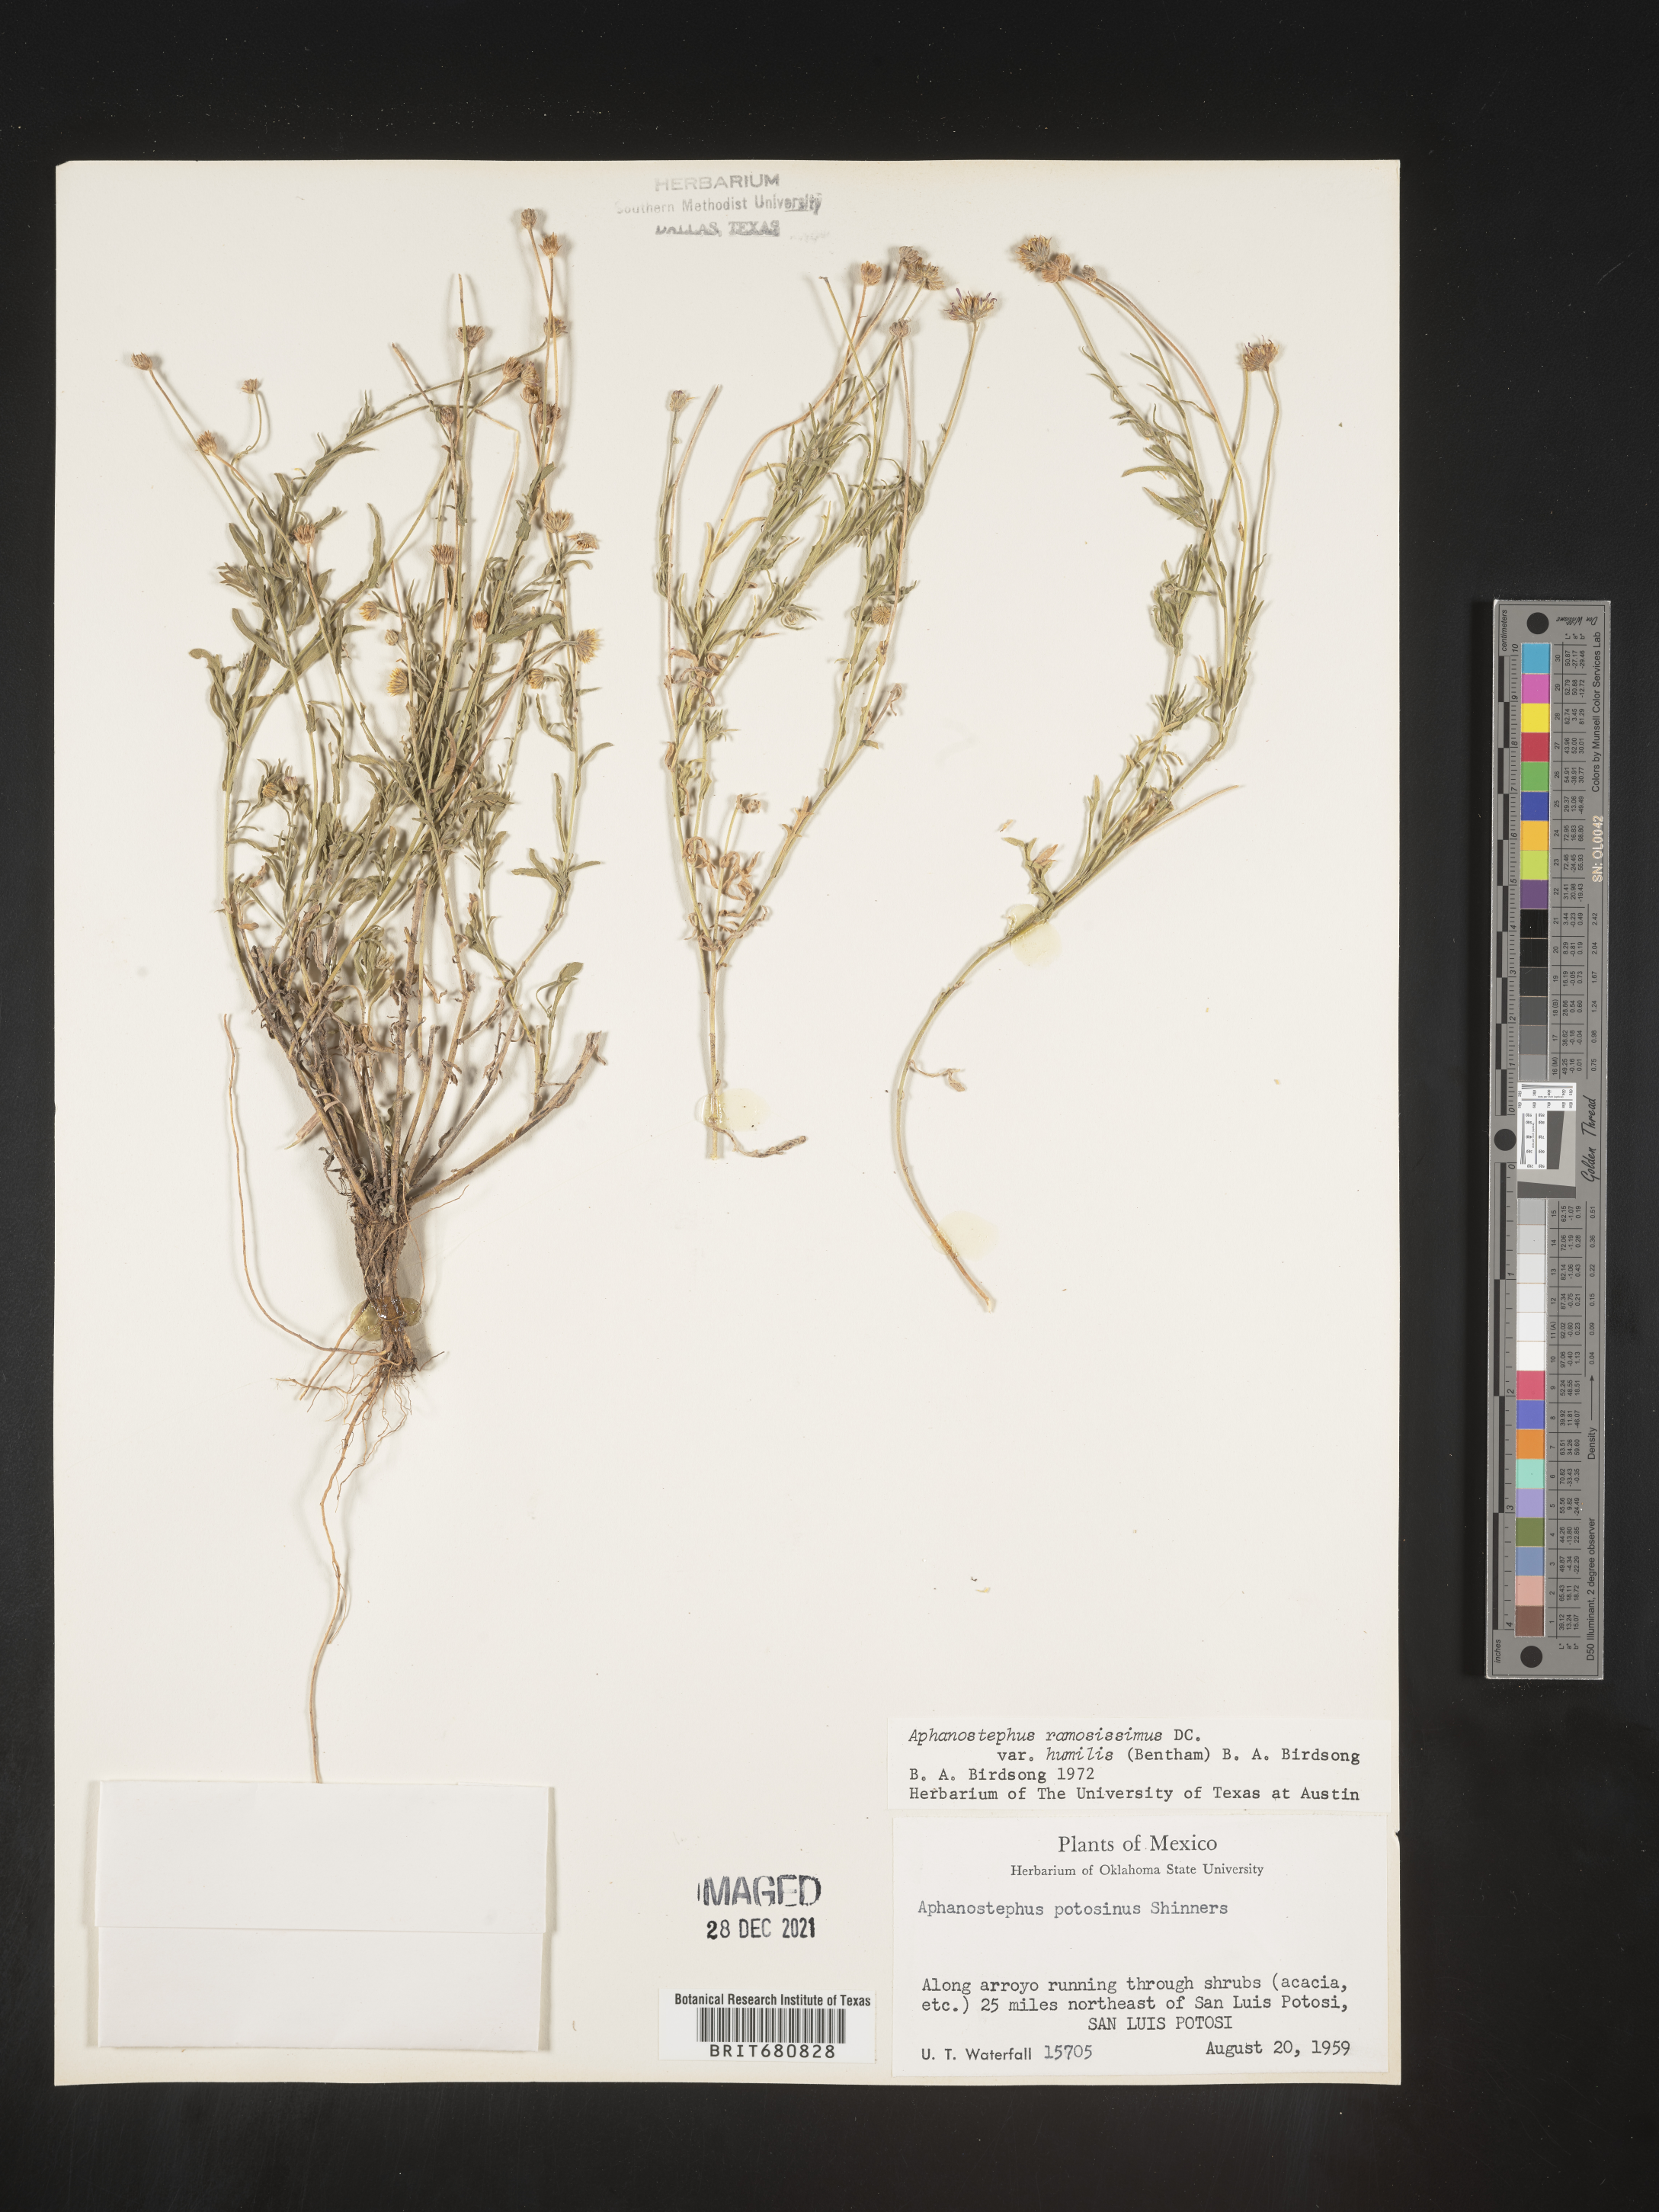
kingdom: Plantae
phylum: Tracheophyta
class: Magnoliopsida
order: Asterales
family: Asteraceae
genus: Aphanostephus
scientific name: Aphanostephus ramosissimus
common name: Plains lazy daisy
